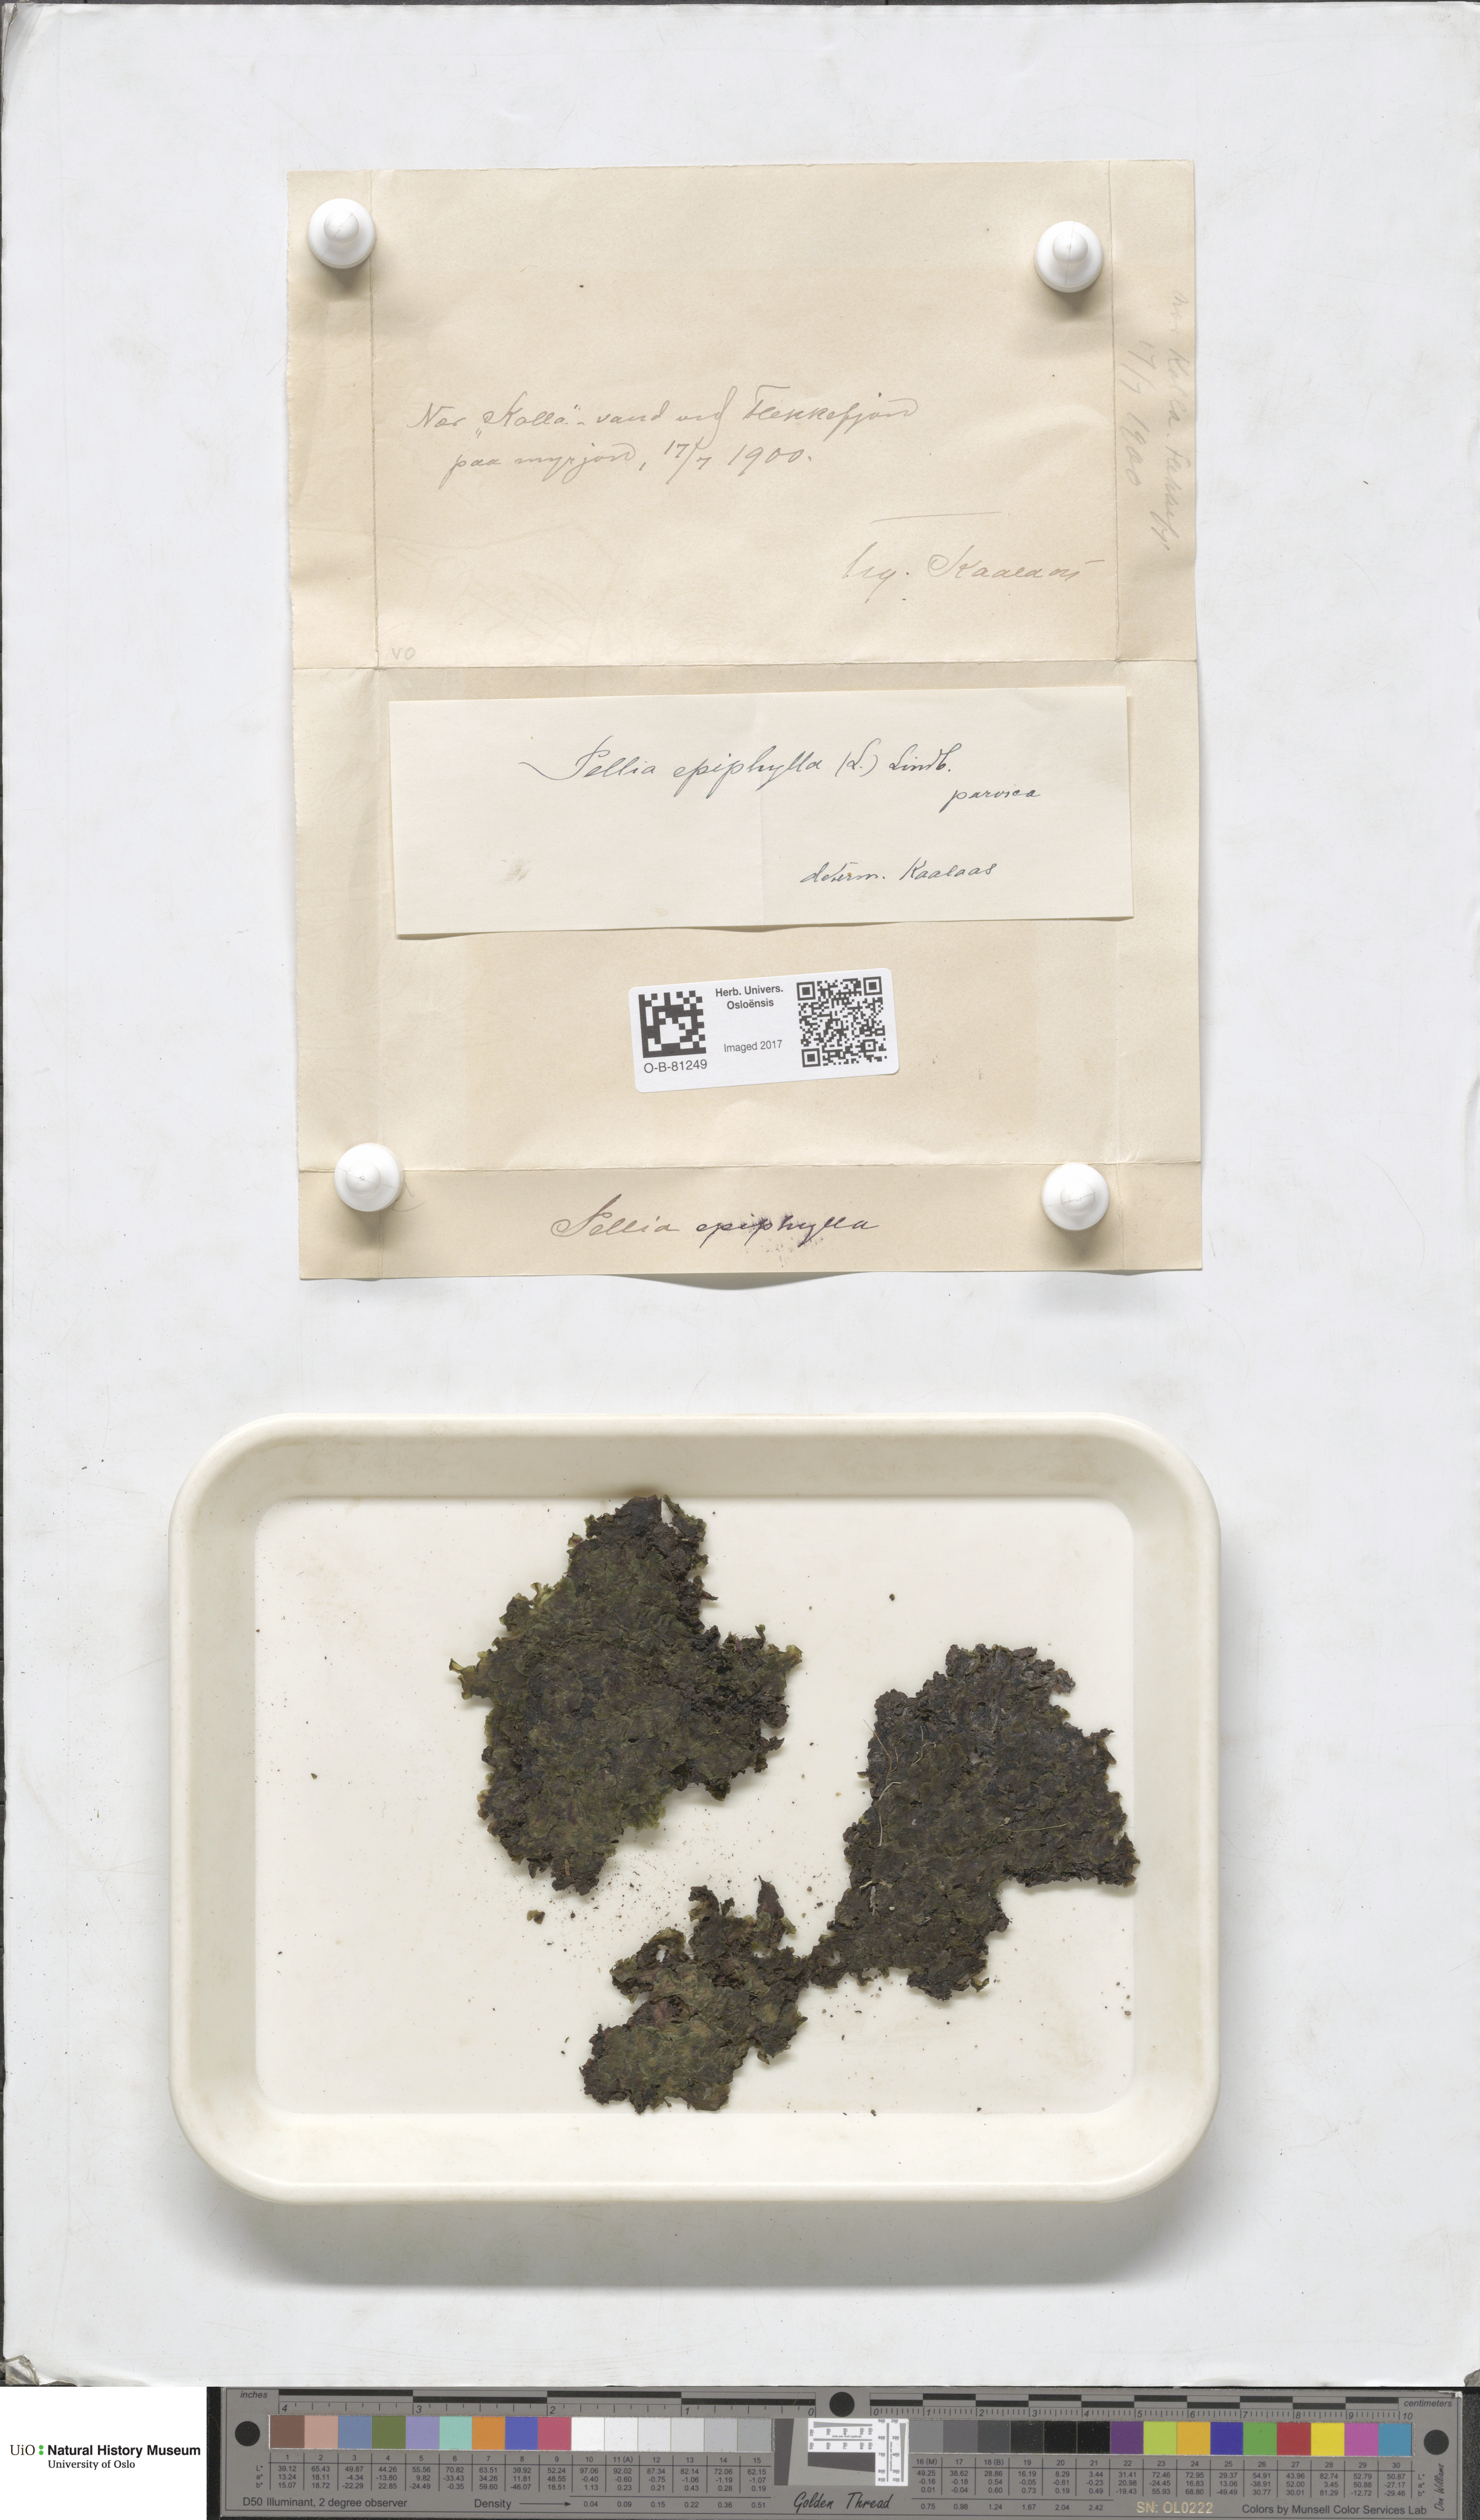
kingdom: Plantae
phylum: Marchantiophyta
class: Jungermanniopsida
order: Pelliales
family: Pelliaceae
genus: Pellia
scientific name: Pellia epiphylla
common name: Common pellia
